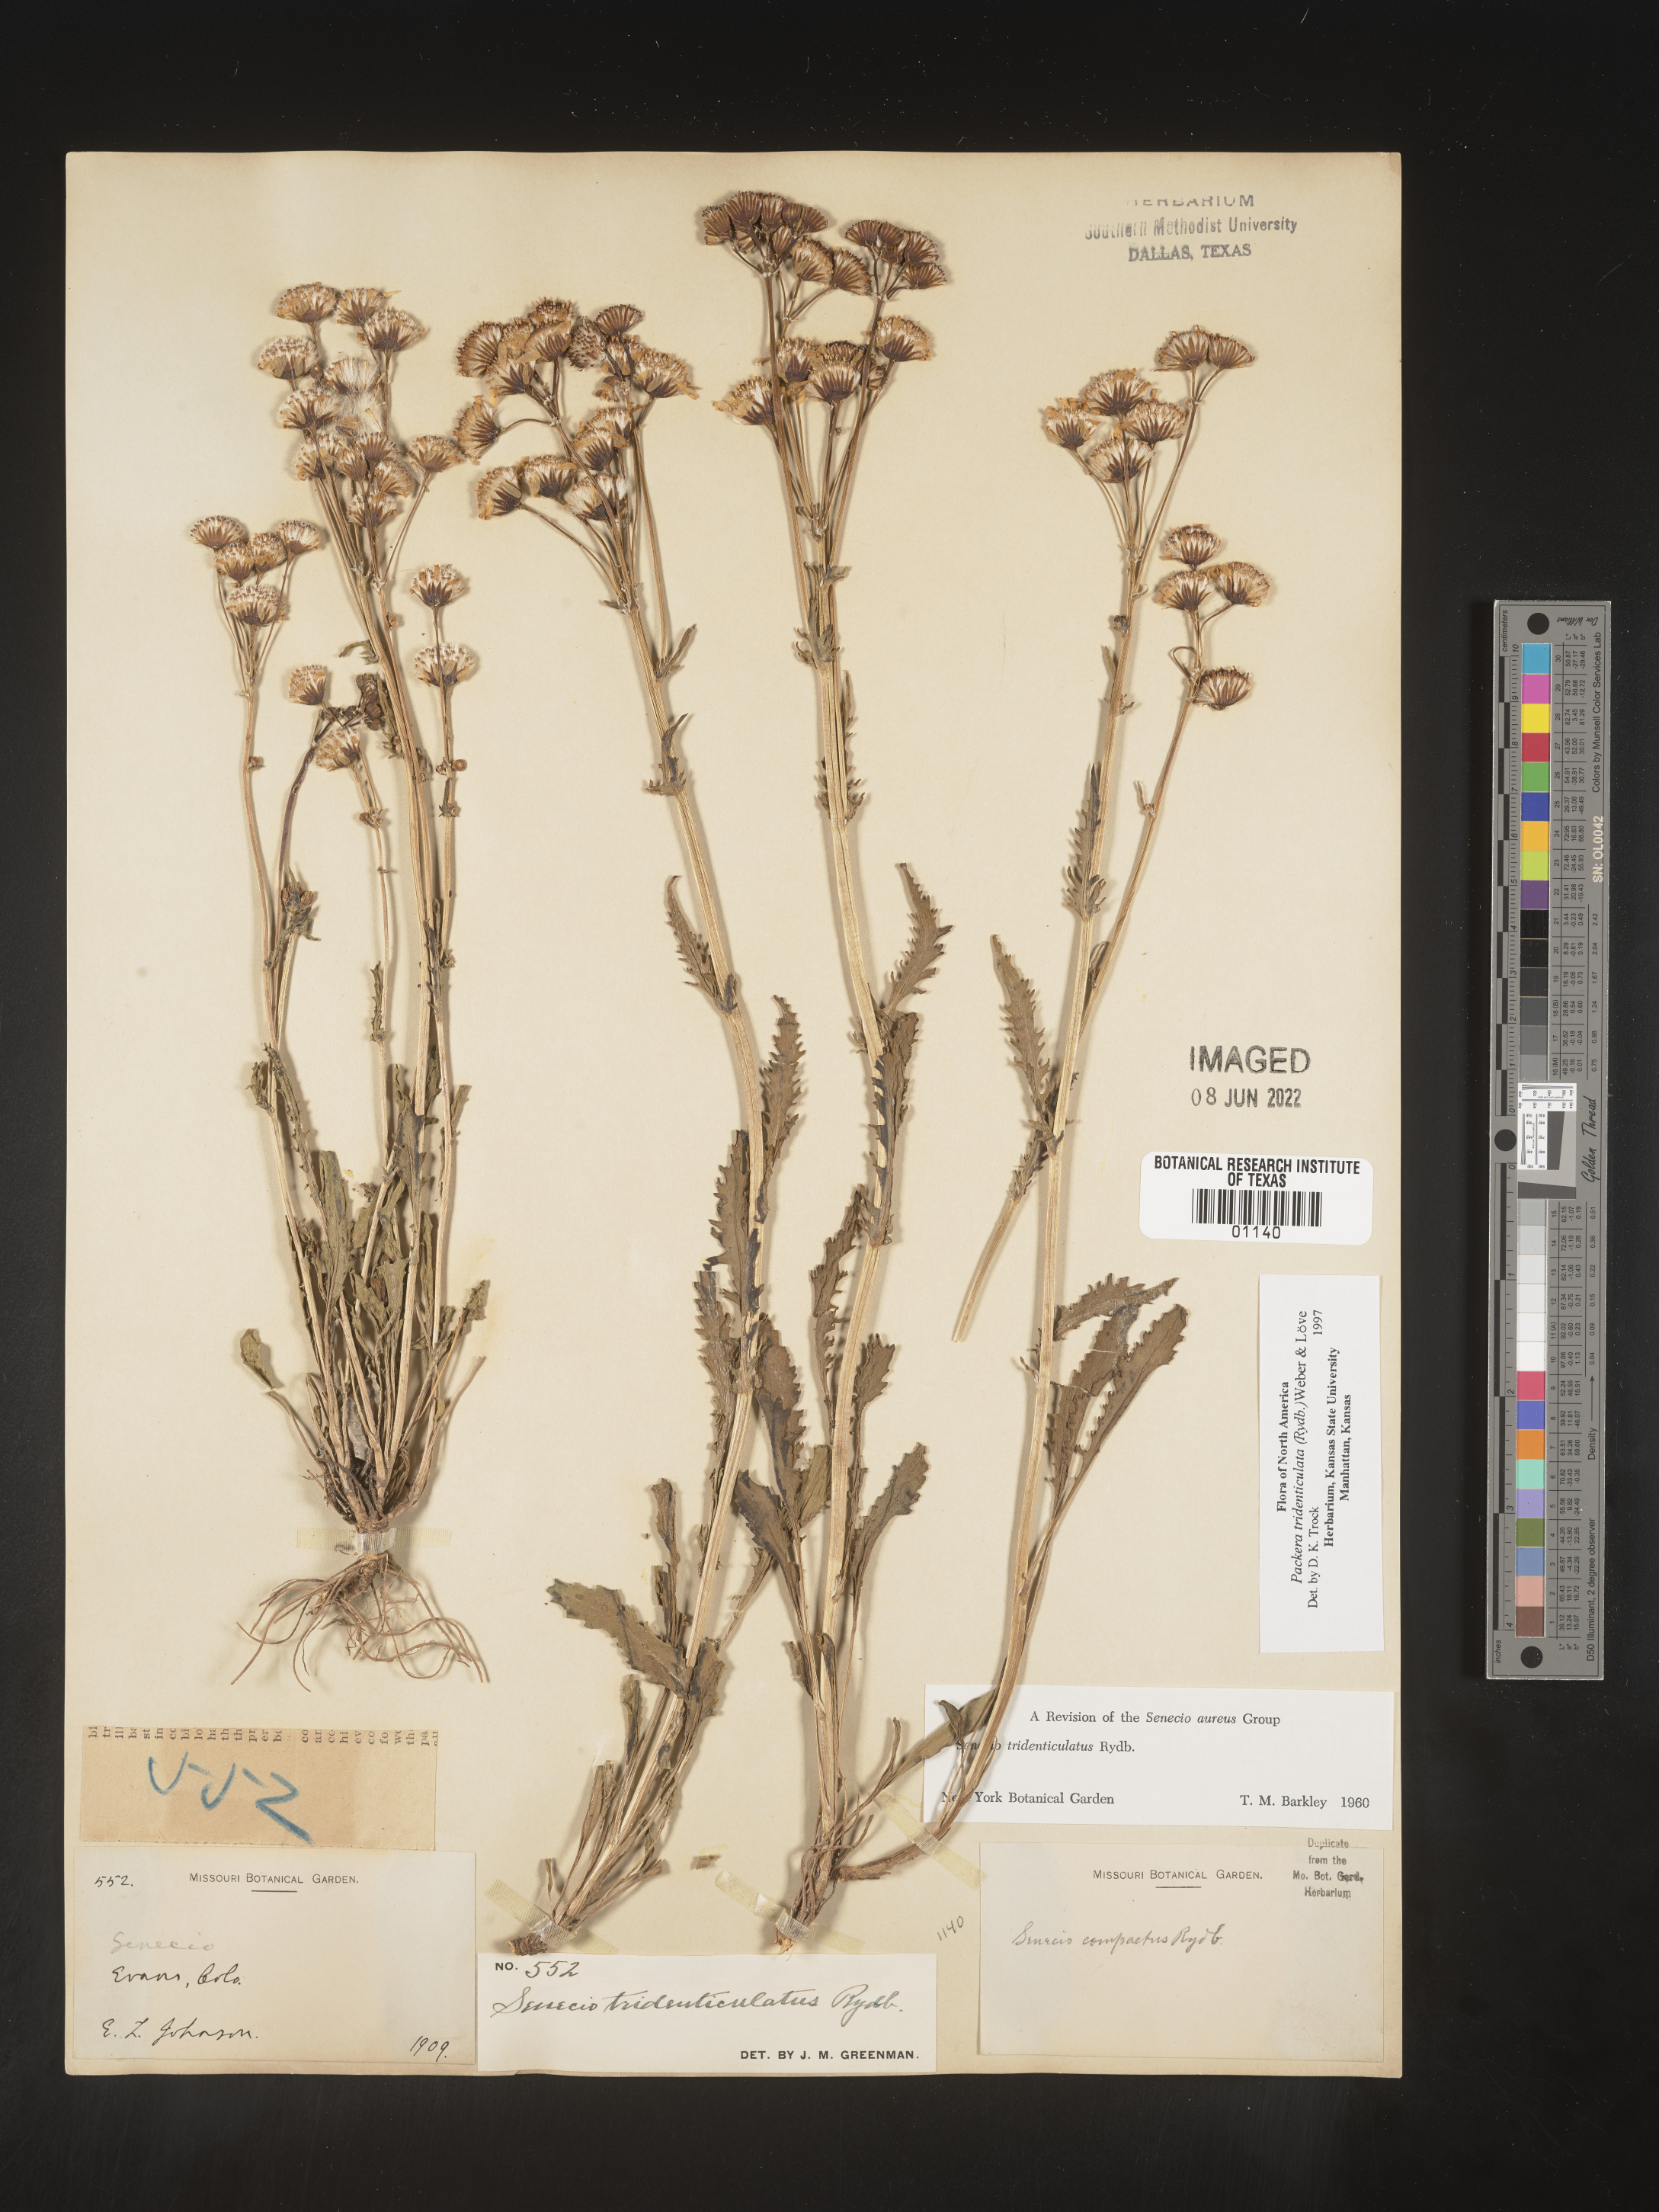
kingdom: Plantae
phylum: Tracheophyta
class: Magnoliopsida
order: Asterales
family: Asteraceae
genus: Packera
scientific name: Packera thurberi
